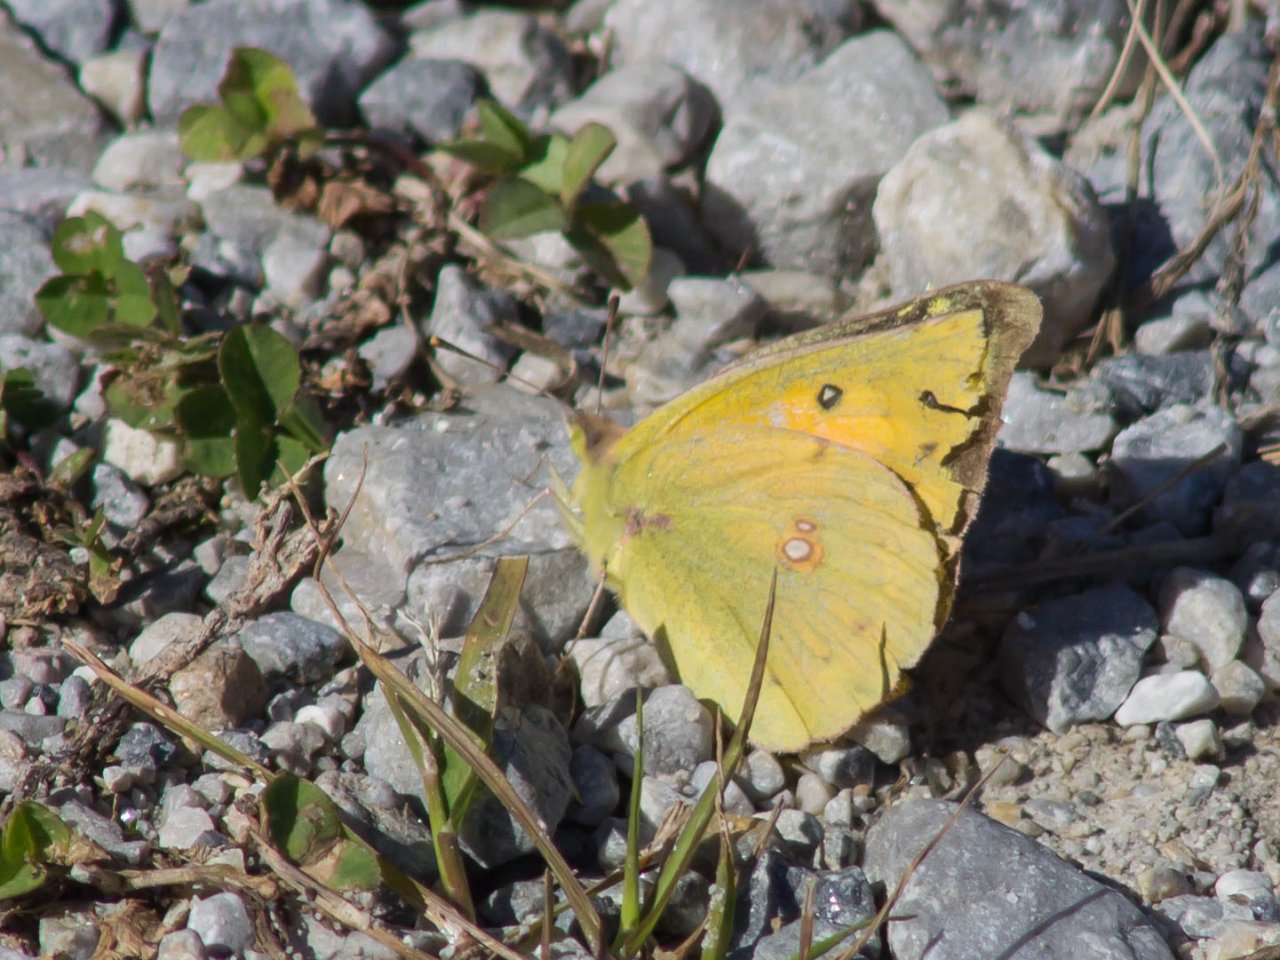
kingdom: Animalia
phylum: Arthropoda
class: Insecta
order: Lepidoptera
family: Pieridae
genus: Colias
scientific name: Colias eurytheme
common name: Orange Sulphur
